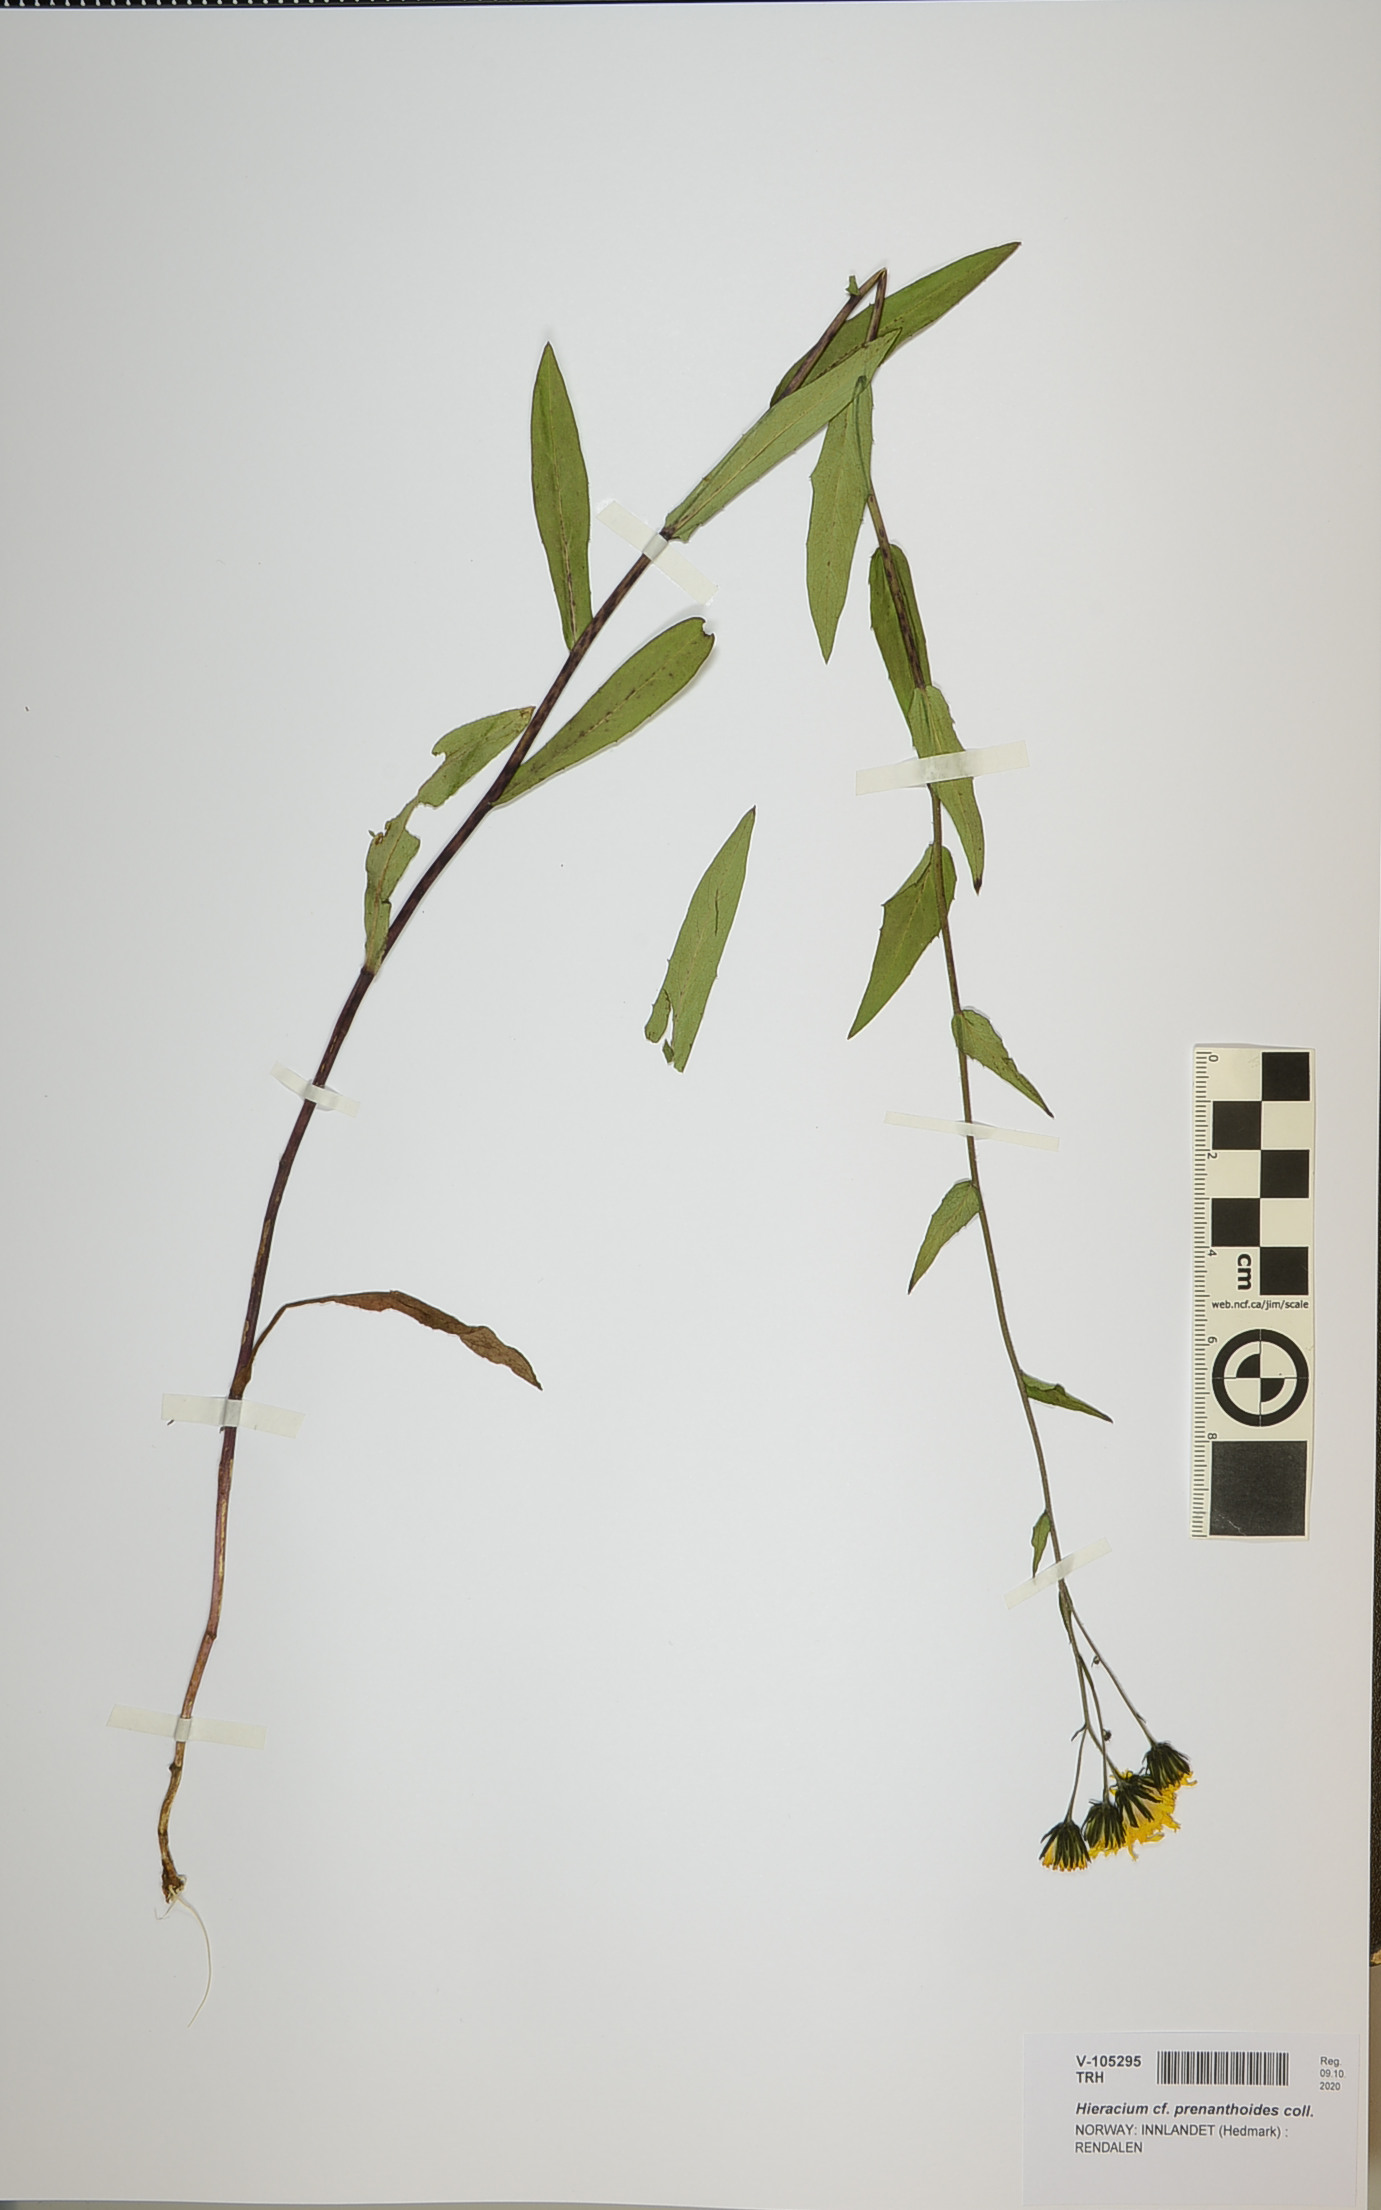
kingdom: Plantae
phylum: Tracheophyta
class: Magnoliopsida
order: Asterales
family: Asteraceae
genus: Hieracium
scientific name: Hieracium prenanthoides
